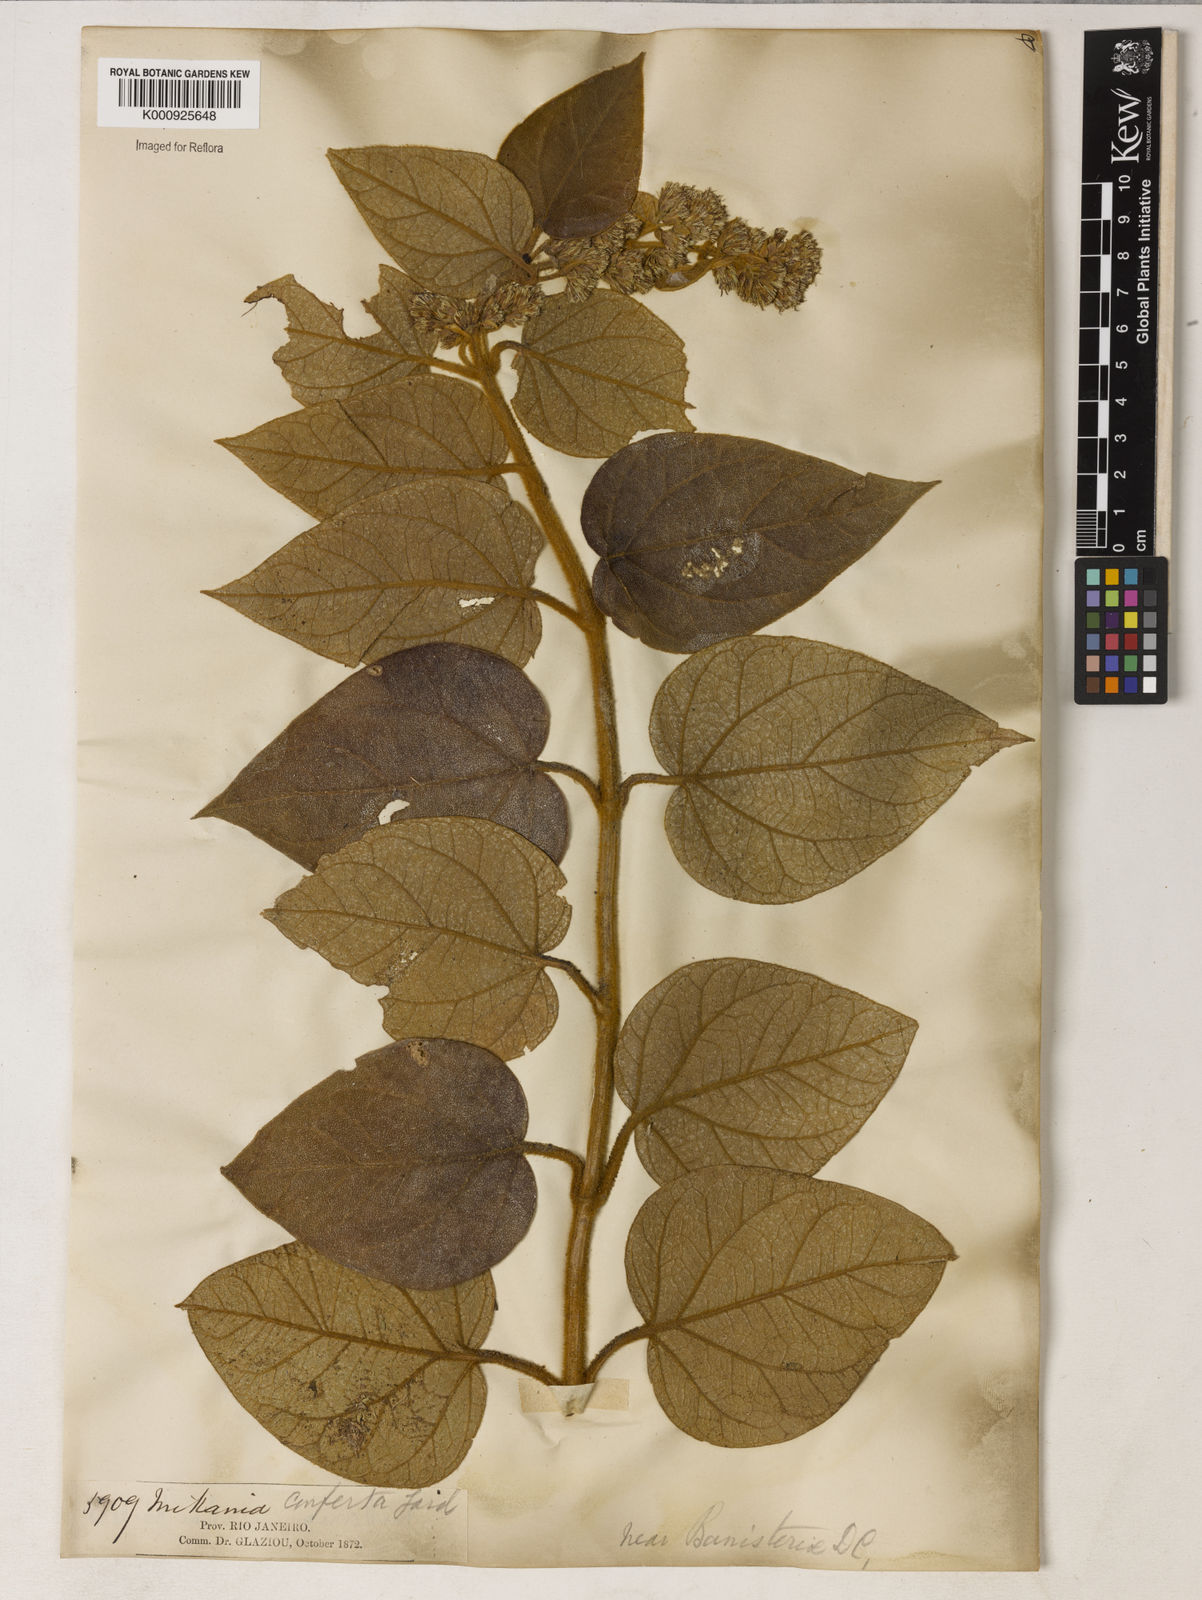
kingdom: Plantae
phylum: Tracheophyta
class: Magnoliopsida
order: Asterales
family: Asteraceae
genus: Mikania
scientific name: Mikania congesta
